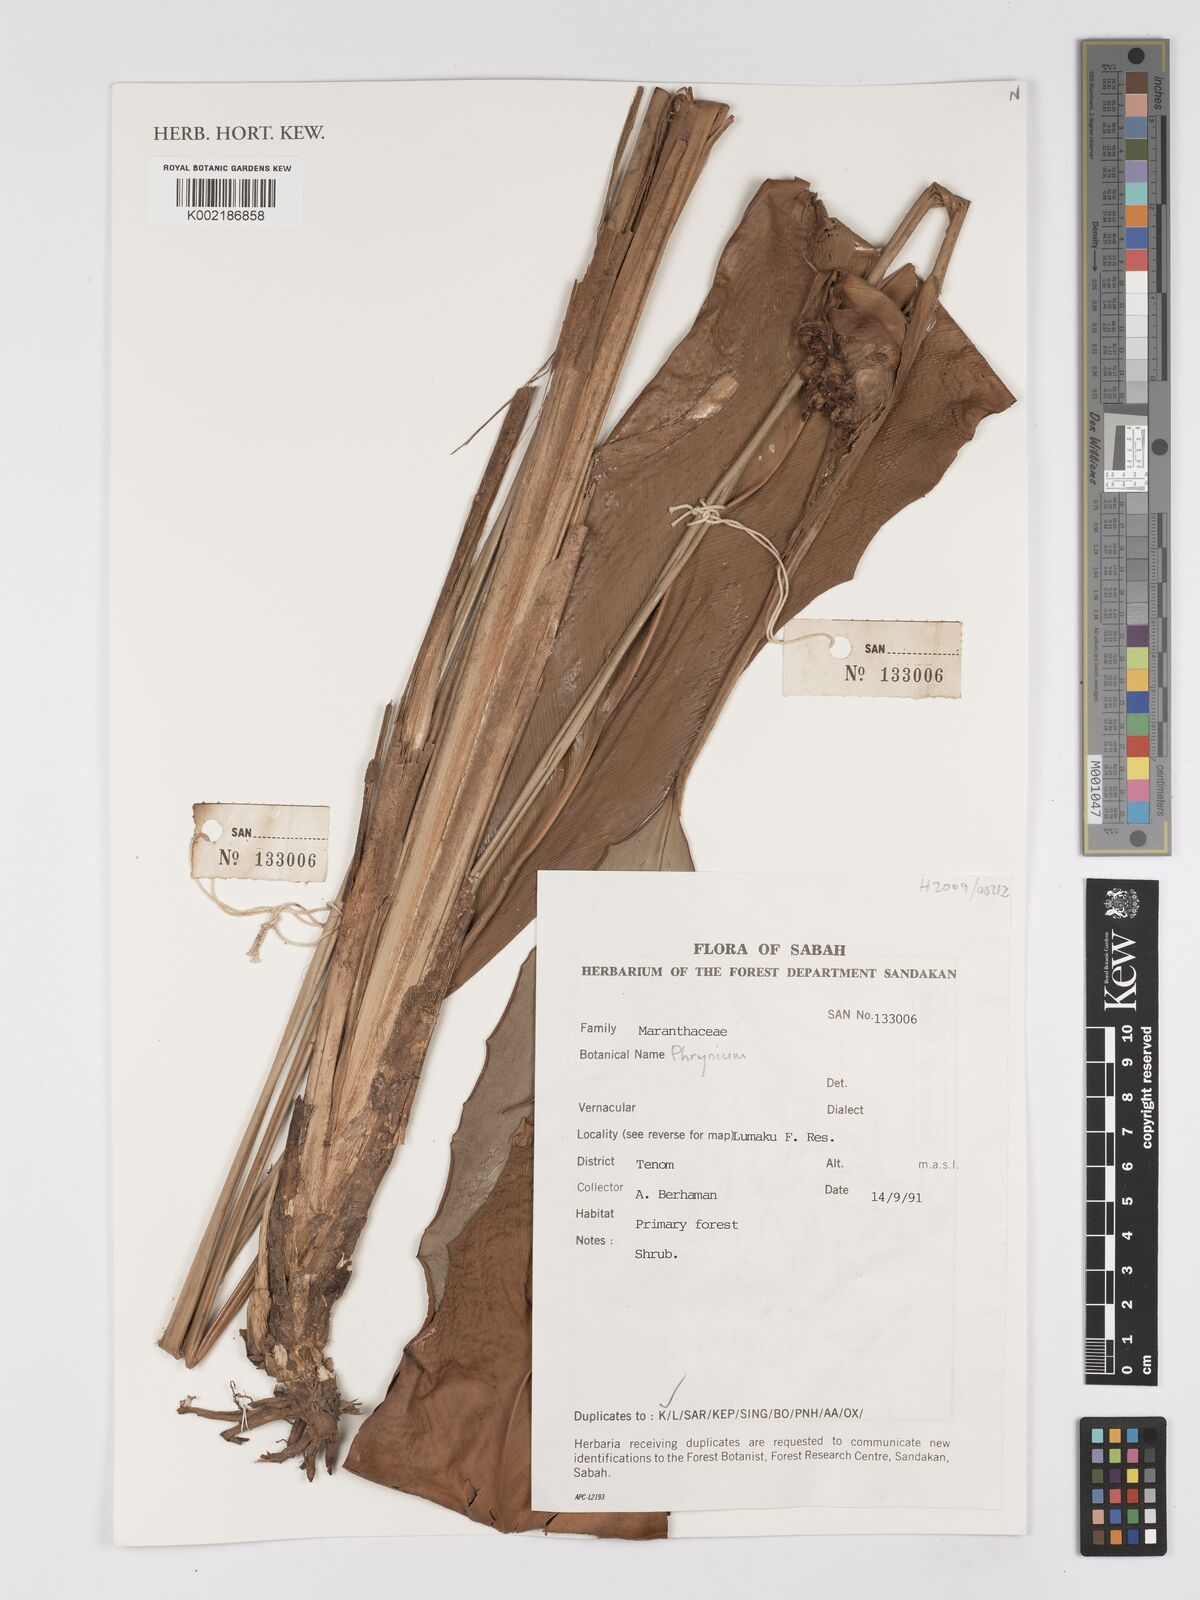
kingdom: Plantae
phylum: Tracheophyta
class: Liliopsida
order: Zingiberales
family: Marantaceae
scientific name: Marantaceae
